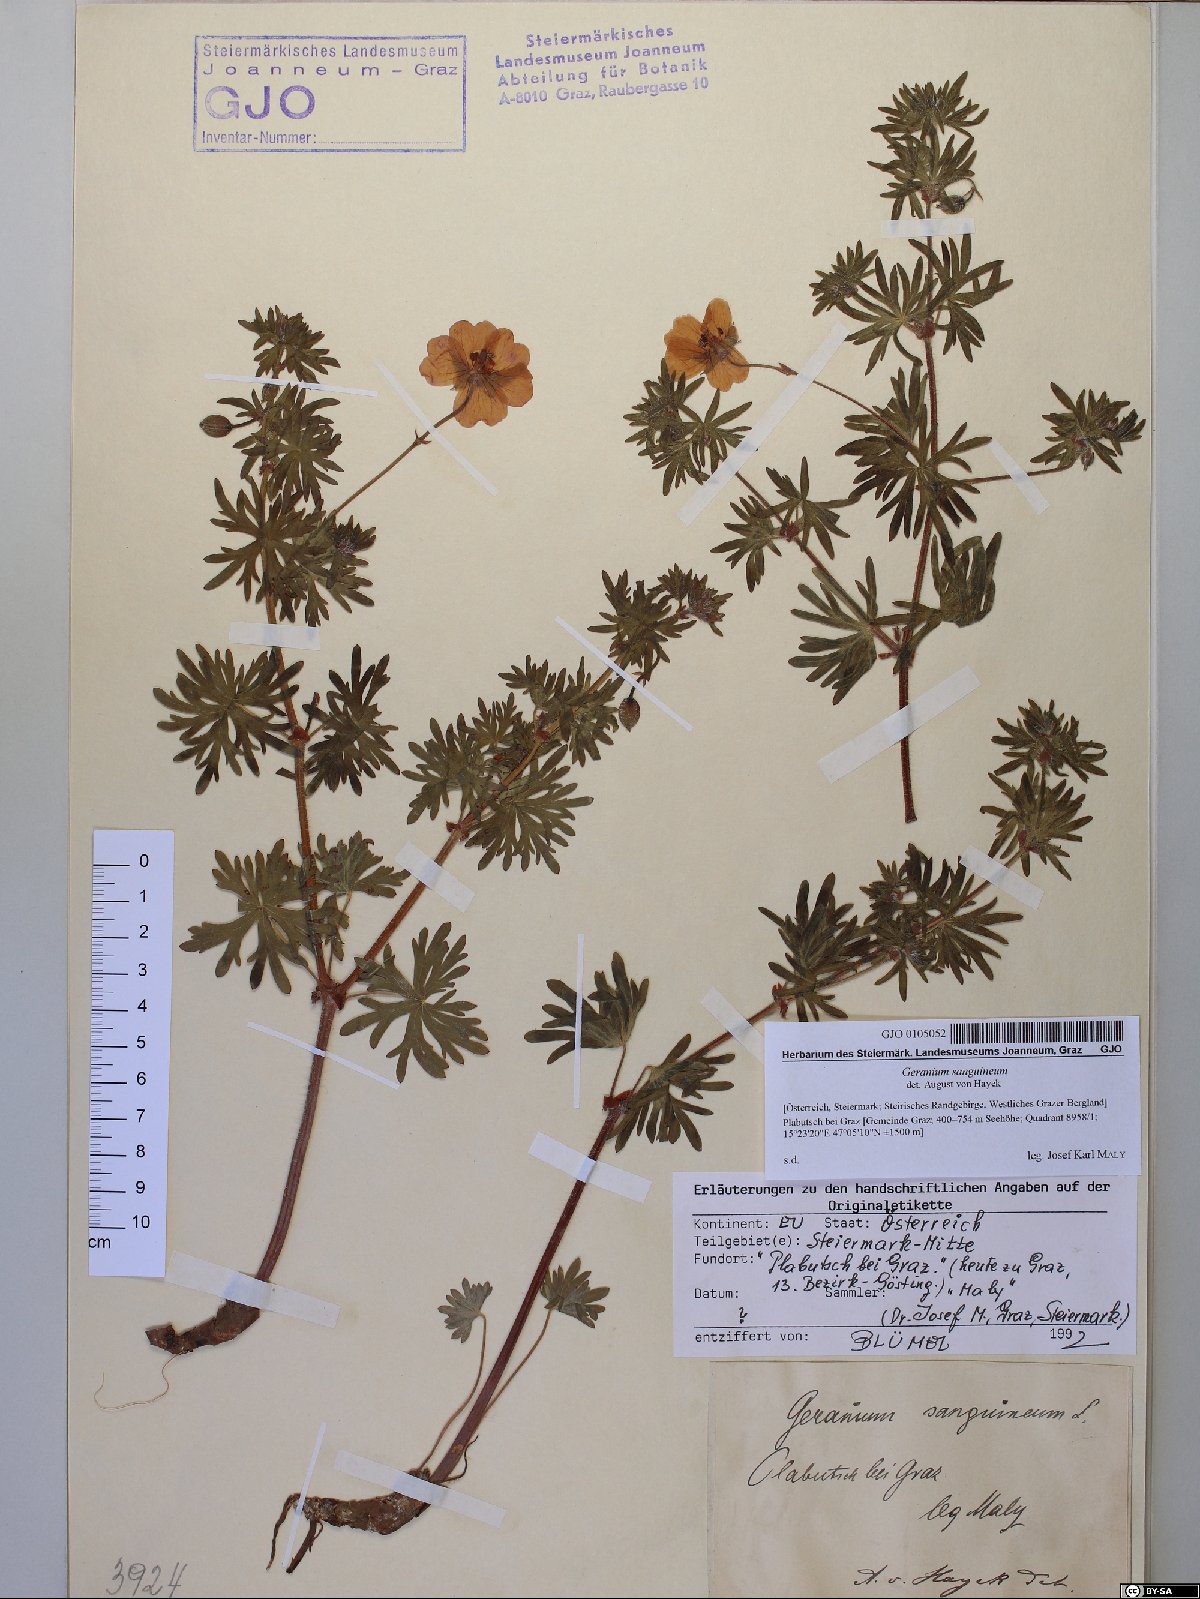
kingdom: Plantae
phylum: Tracheophyta
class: Magnoliopsida
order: Geraniales
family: Geraniaceae
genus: Geranium
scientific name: Geranium sanguineum
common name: Bloody crane's-bill
